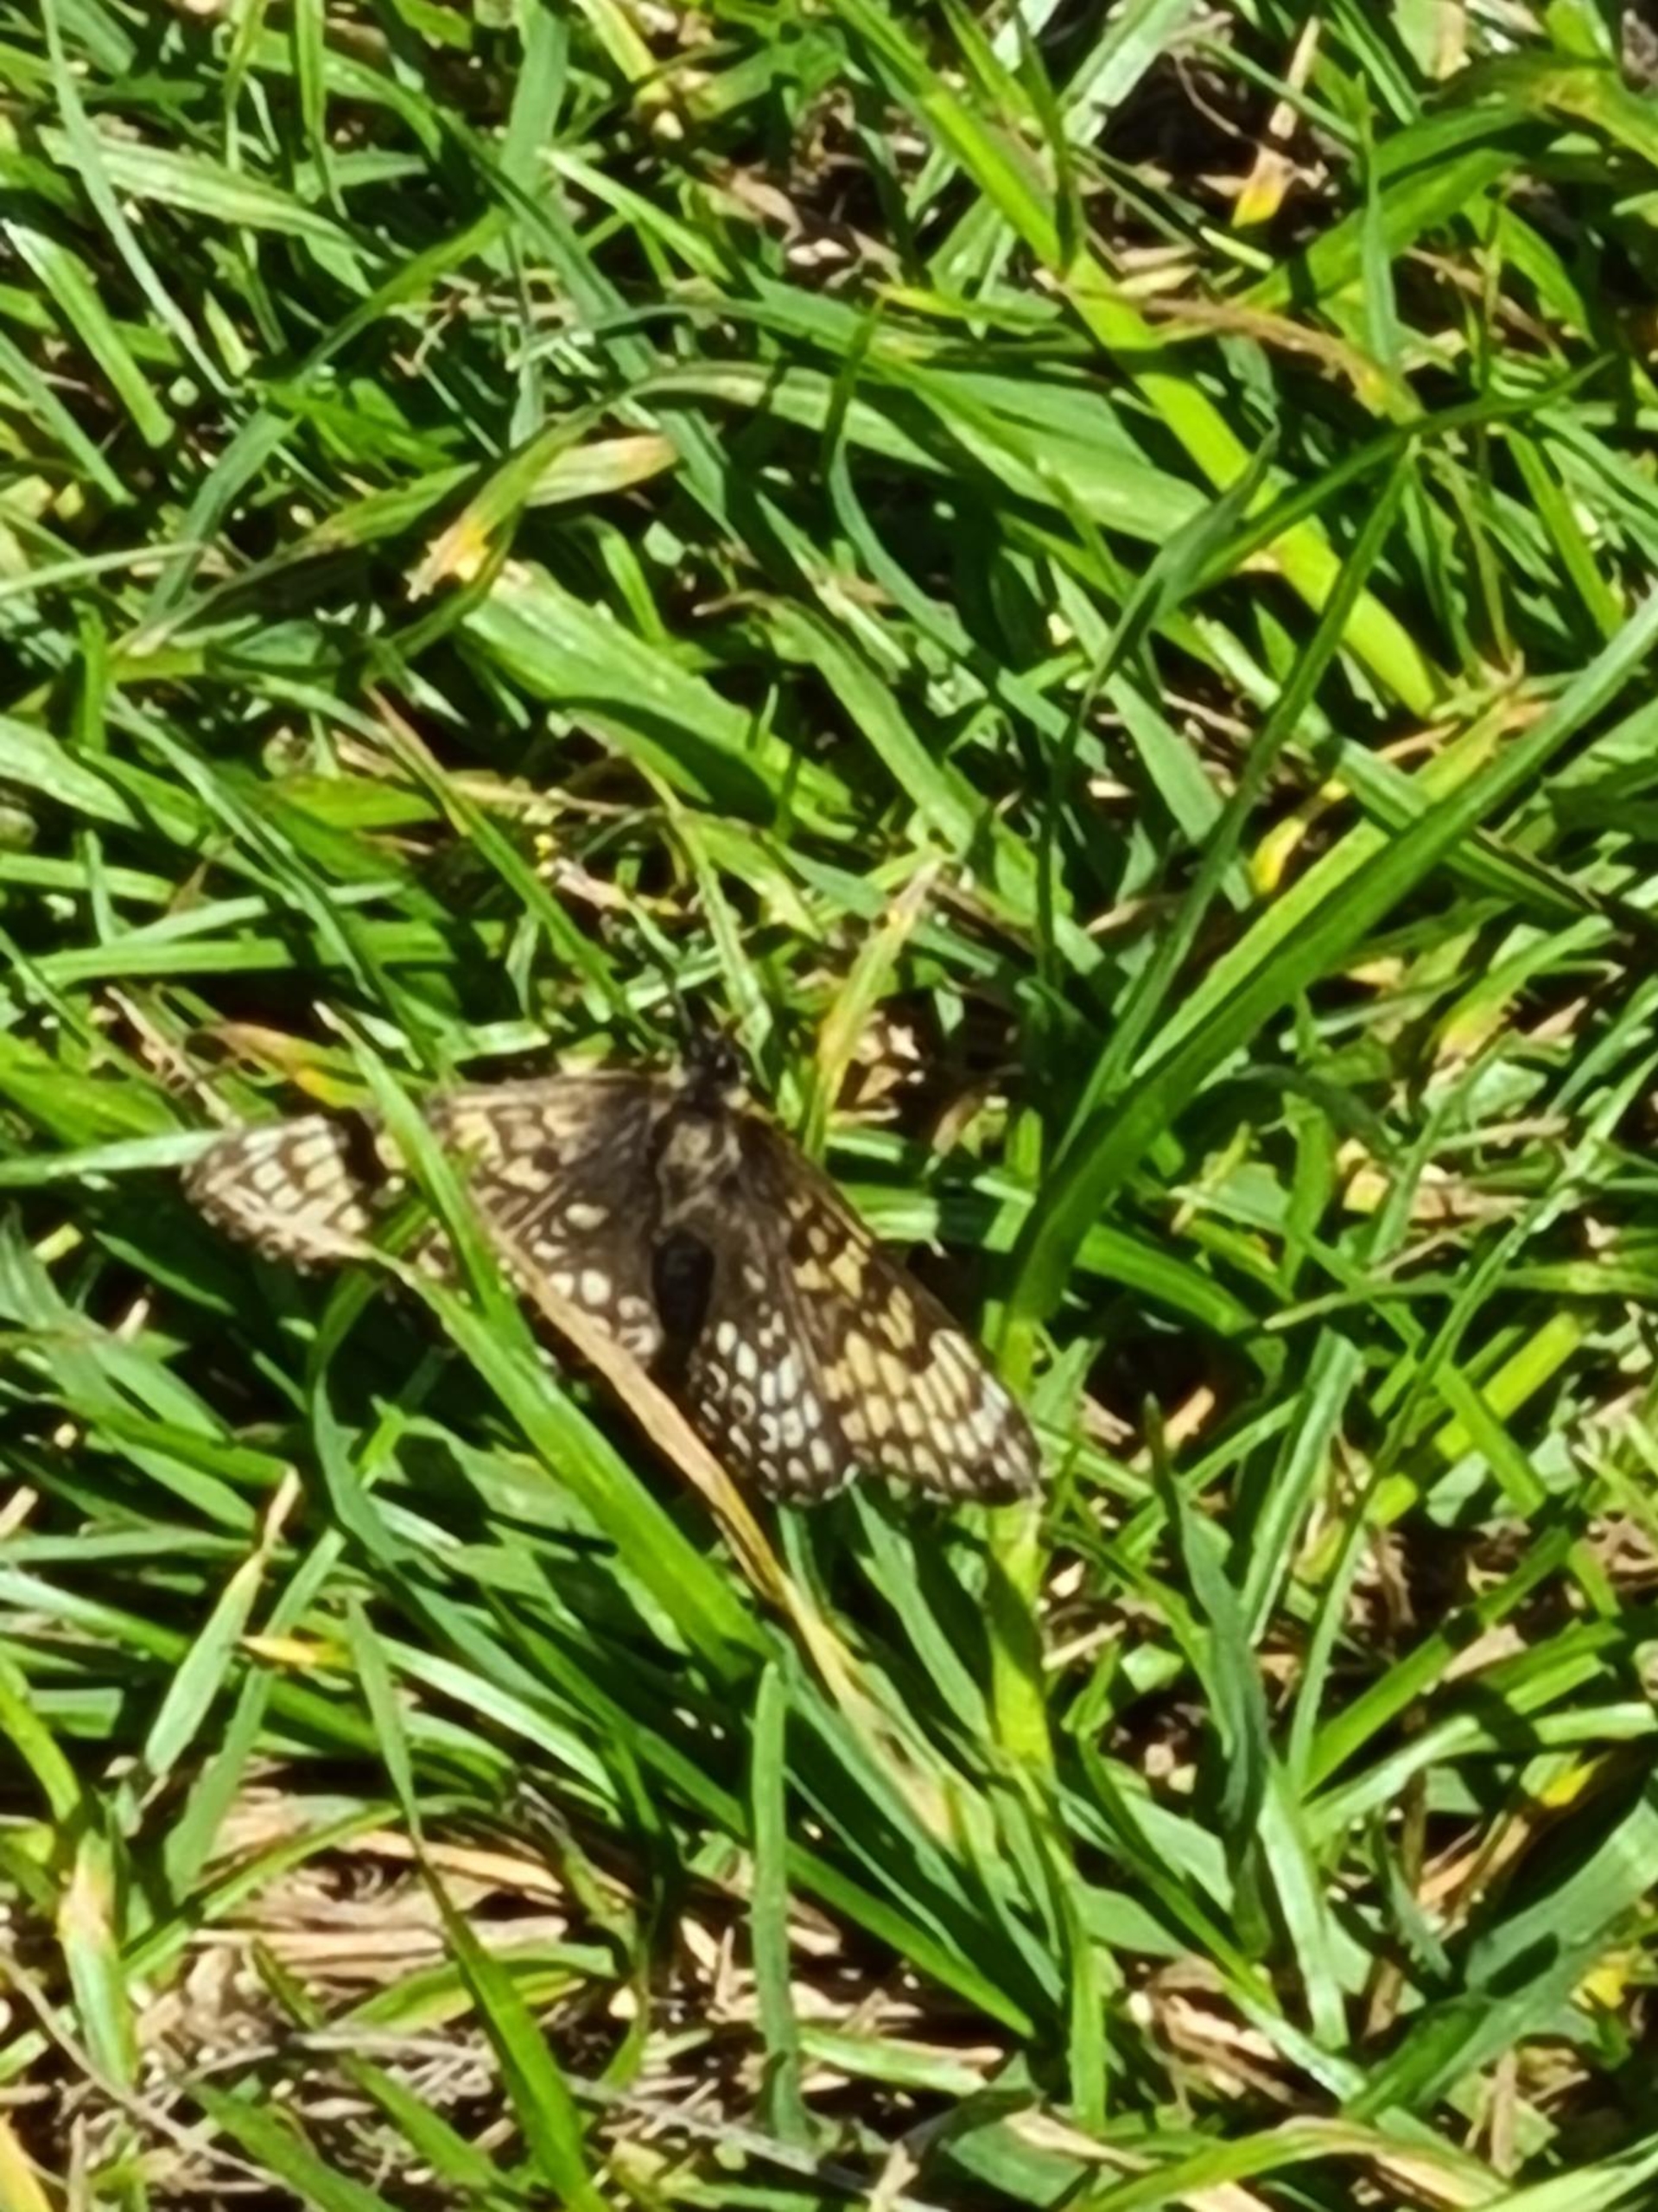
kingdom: Animalia
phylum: Arthropoda
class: Insecta
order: Lepidoptera
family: Nymphalidae
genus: Melitaea
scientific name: Melitaea cinxia
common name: Okkergul pletvinge
